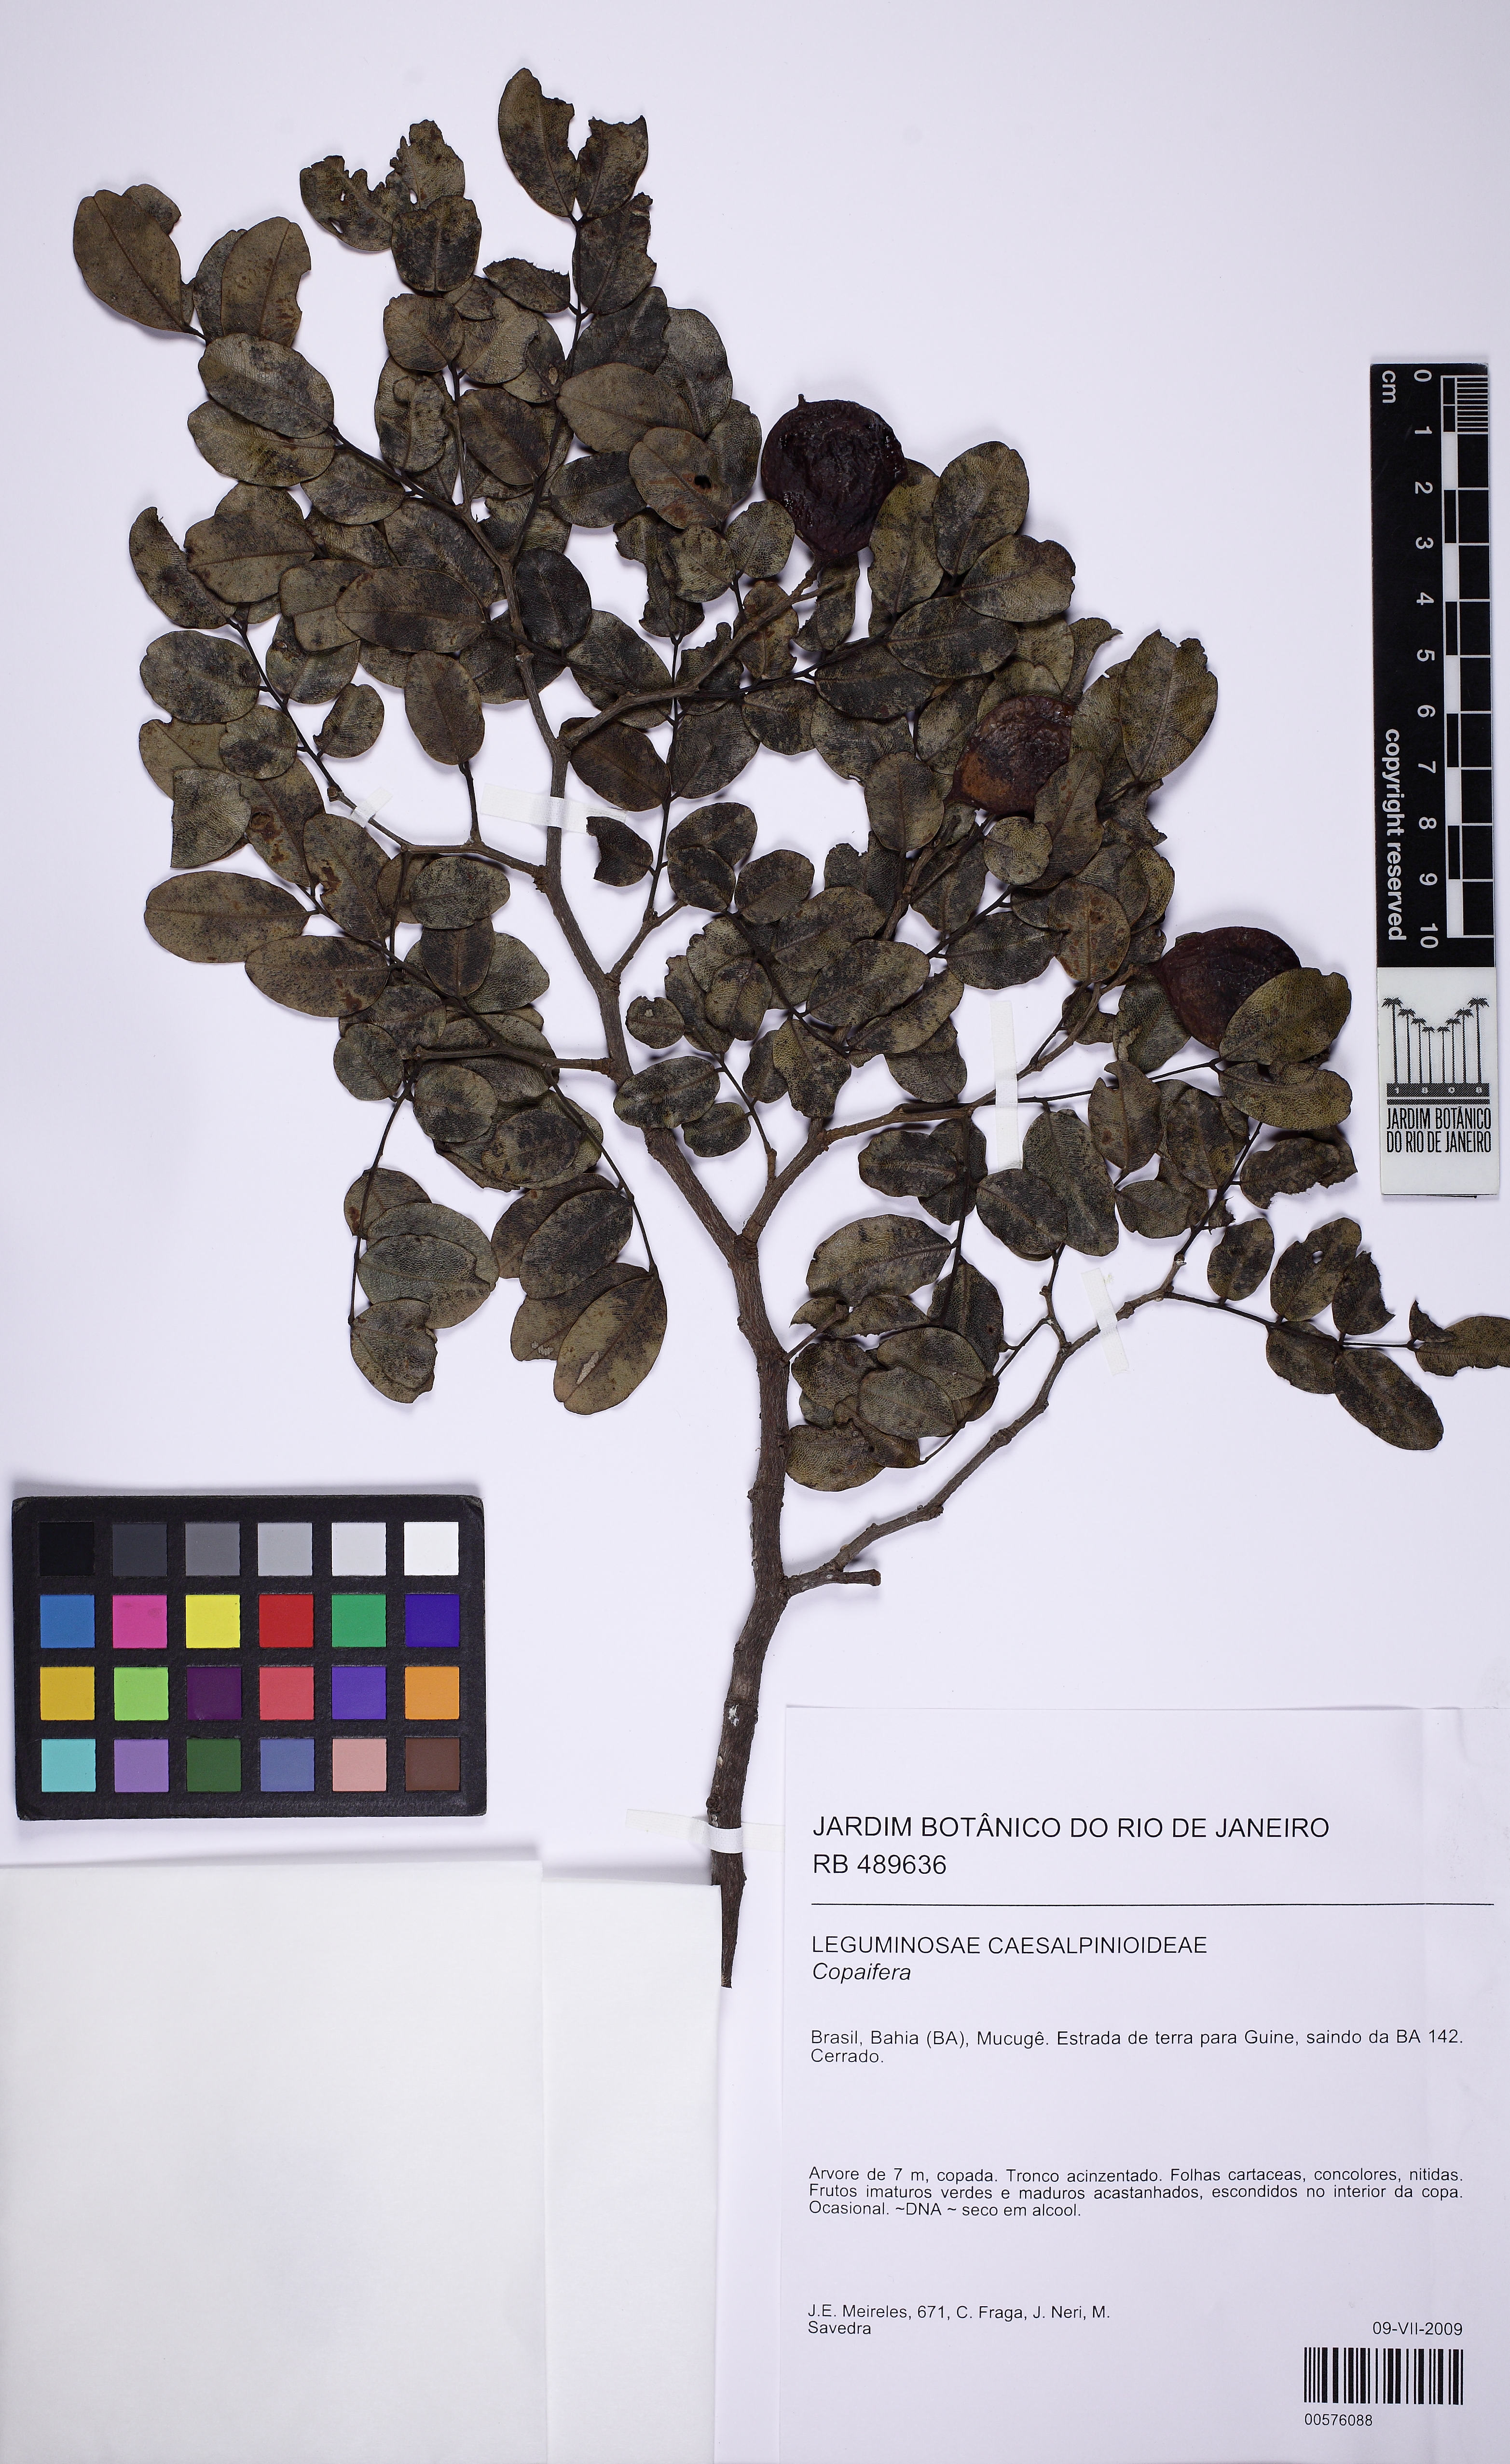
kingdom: Plantae
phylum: Tracheophyta
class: Magnoliopsida
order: Fabales
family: Fabaceae
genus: Copaifera
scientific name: Copaifera
